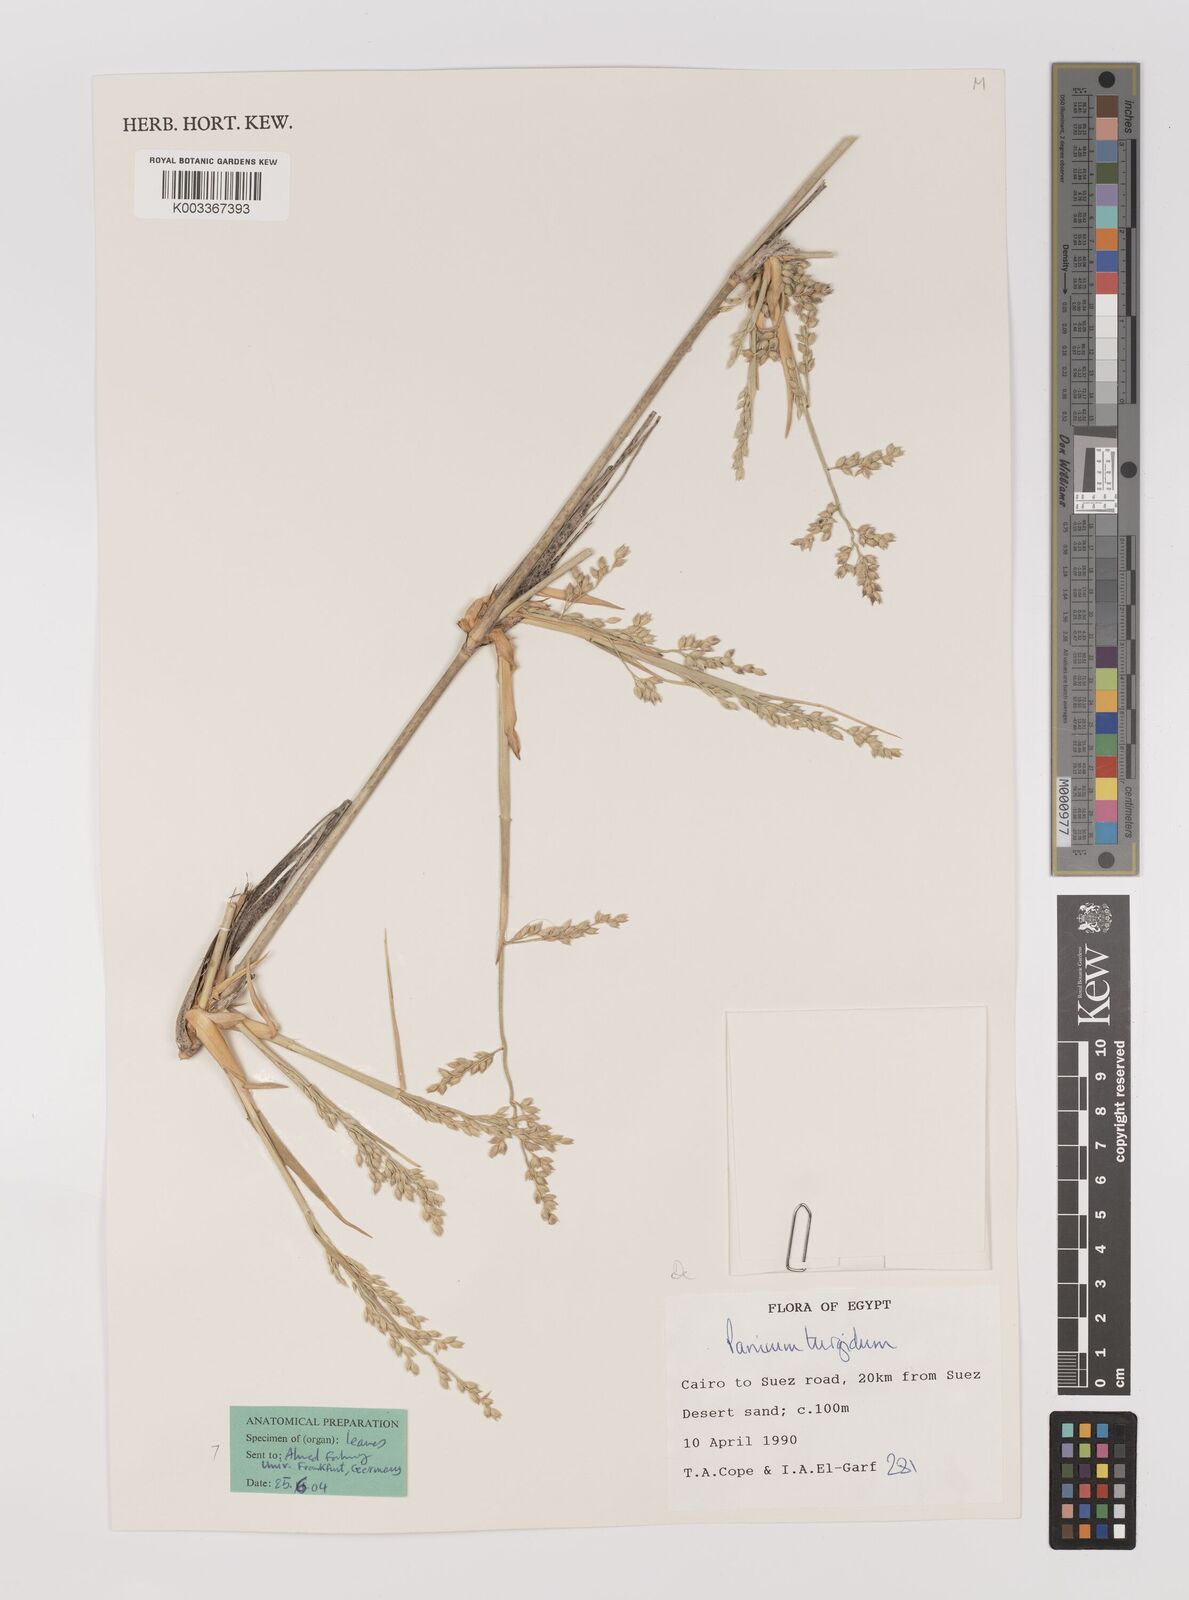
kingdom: Plantae
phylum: Tracheophyta
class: Liliopsida
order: Poales
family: Poaceae
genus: Panicum
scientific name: Panicum turgidum
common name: Desert grass
